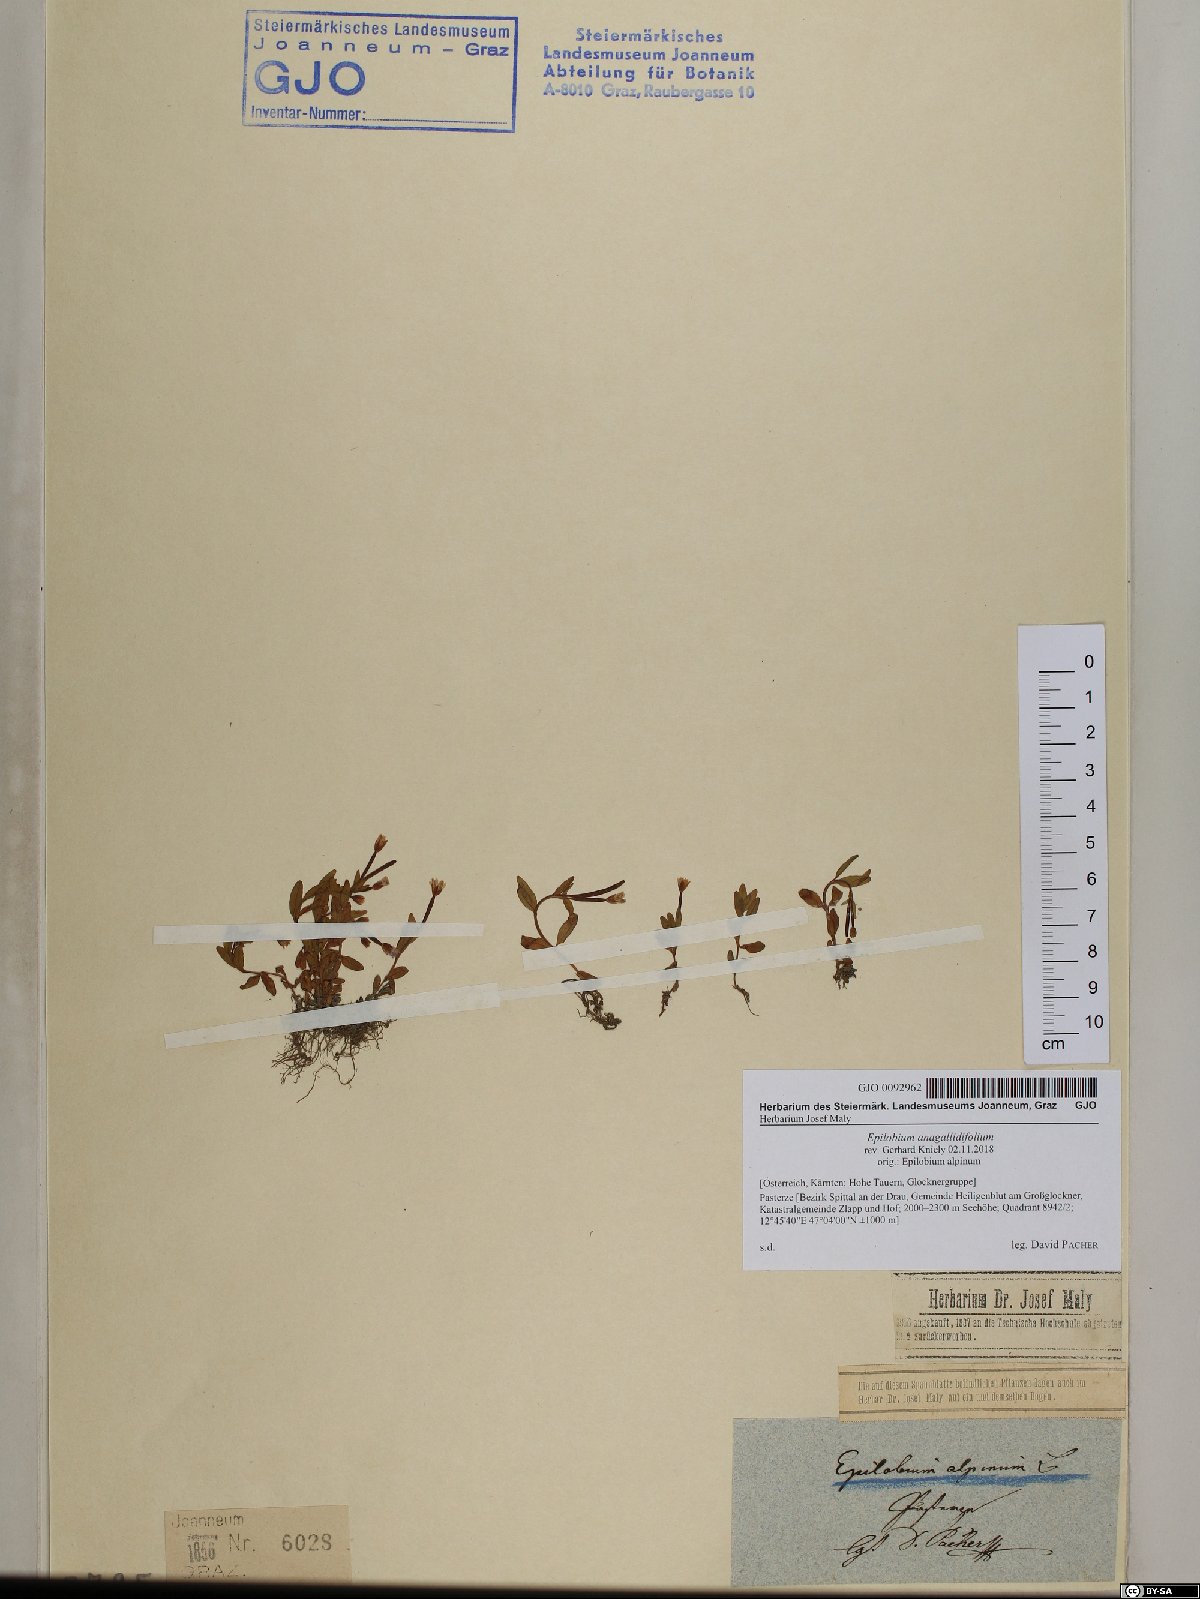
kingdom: Plantae
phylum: Tracheophyta
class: Magnoliopsida
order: Myrtales
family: Onagraceae
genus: Epilobium
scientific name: Epilobium anagallidifolium
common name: Alpine willowherb
